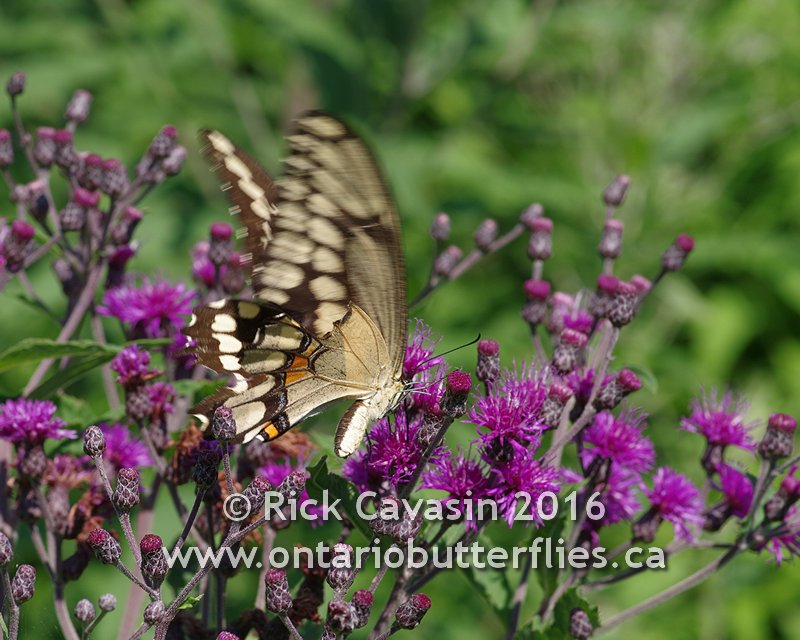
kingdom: Animalia
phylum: Arthropoda
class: Insecta
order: Lepidoptera
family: Papilionidae
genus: Papilio
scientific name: Papilio cresphontes
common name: Eastern Giant Swallowtail
